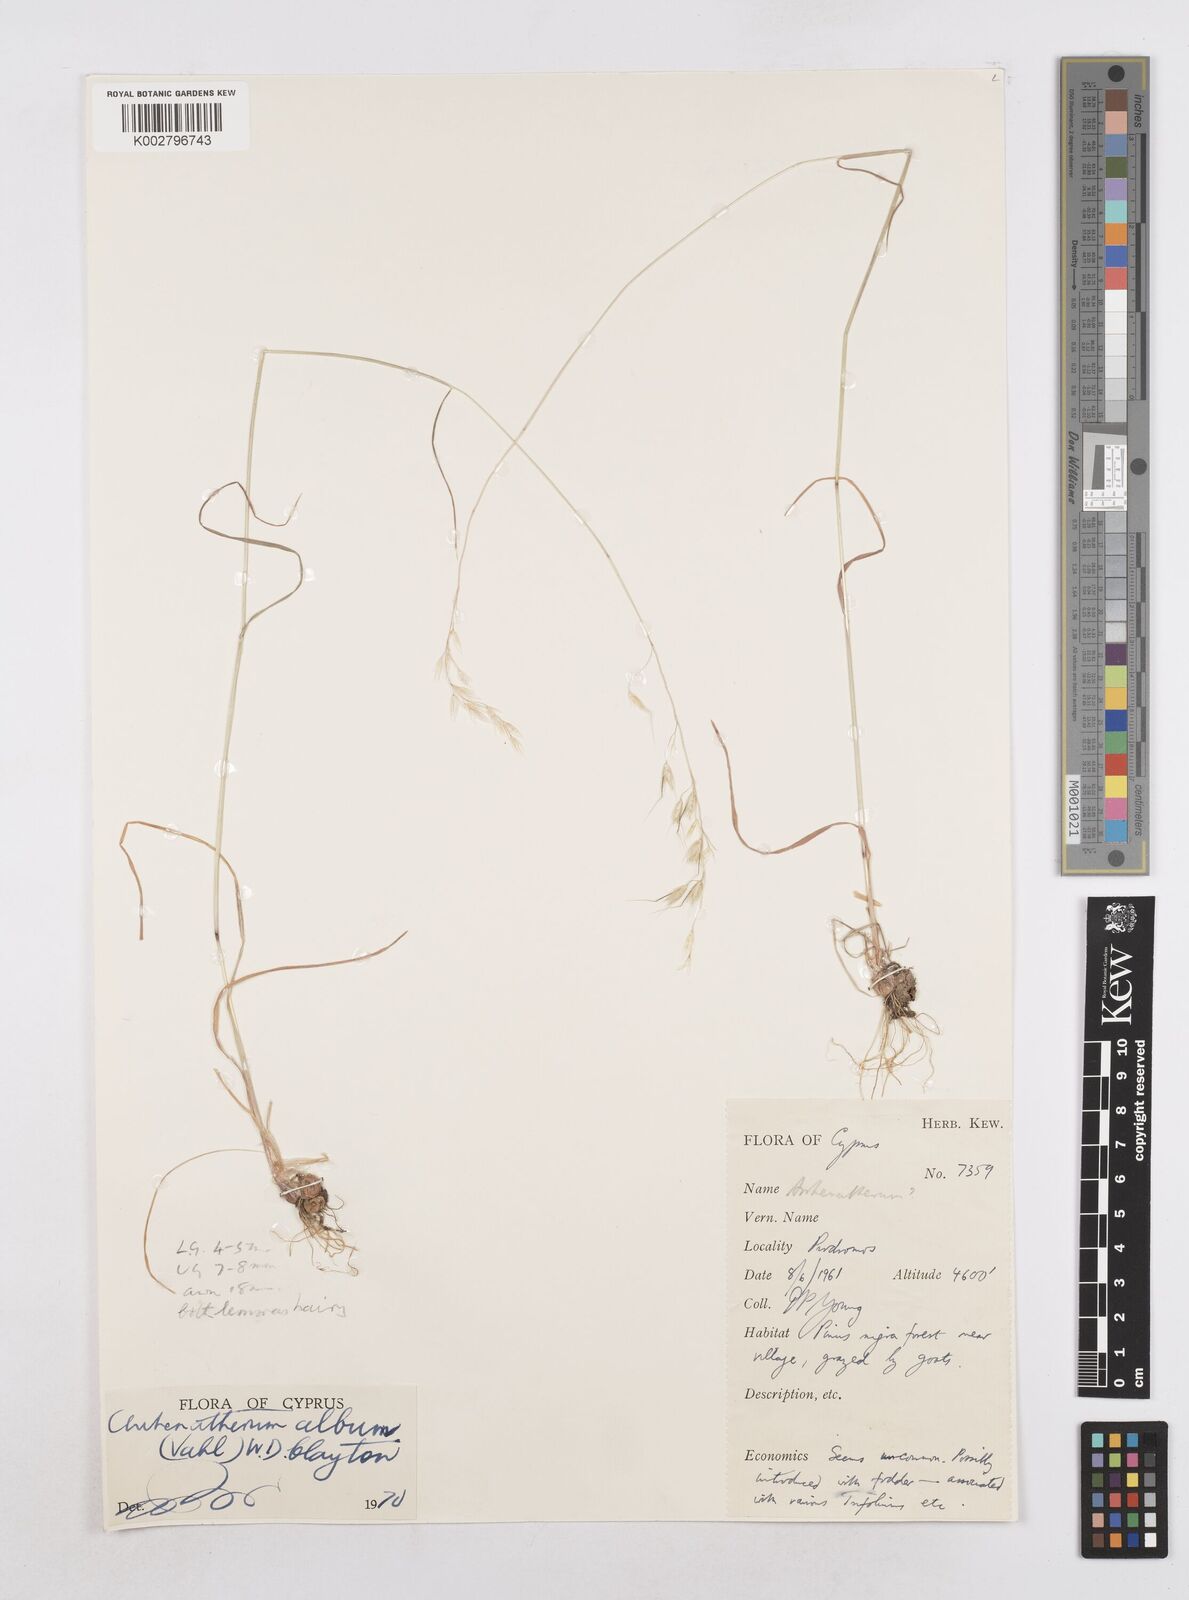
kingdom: Plantae
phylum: Tracheophyta
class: Liliopsida
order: Poales
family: Poaceae
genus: Arrhenatherum
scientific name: Arrhenatherum album
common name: Tall oat grass
